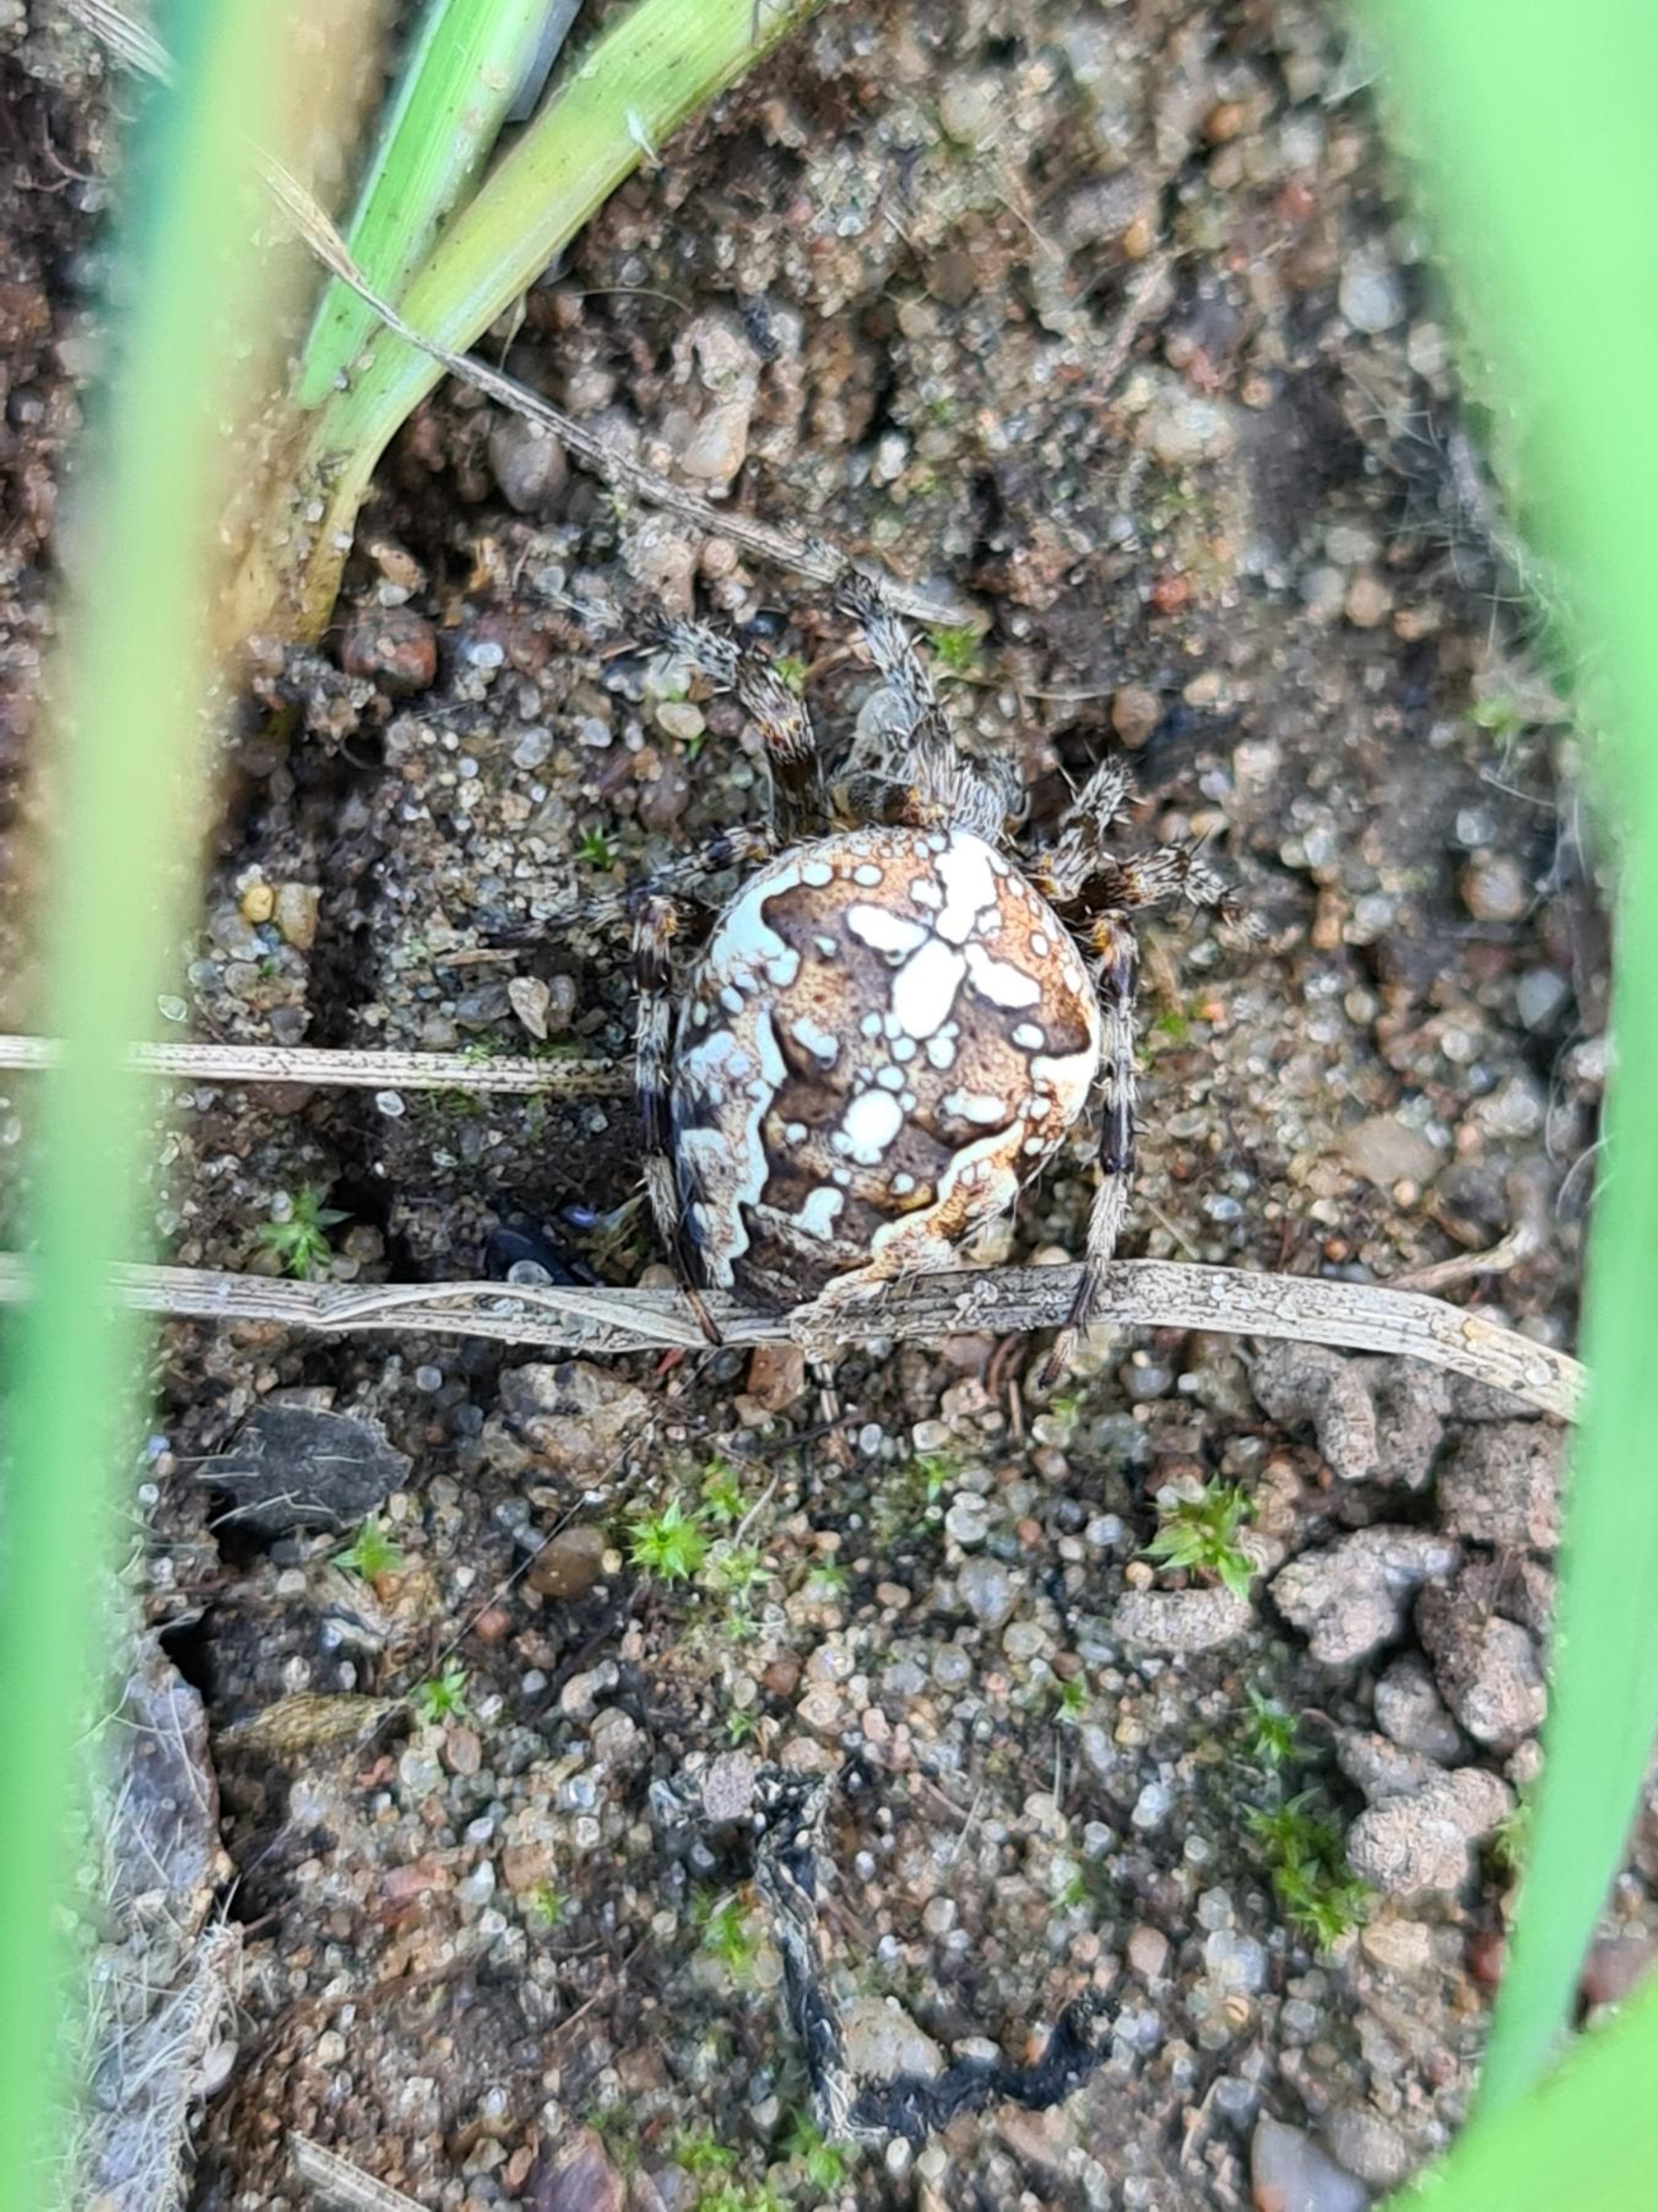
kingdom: Animalia
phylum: Arthropoda
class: Arachnida
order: Araneae
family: Araneidae
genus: Araneus
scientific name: Araneus diadematus
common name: Korsedderkop
